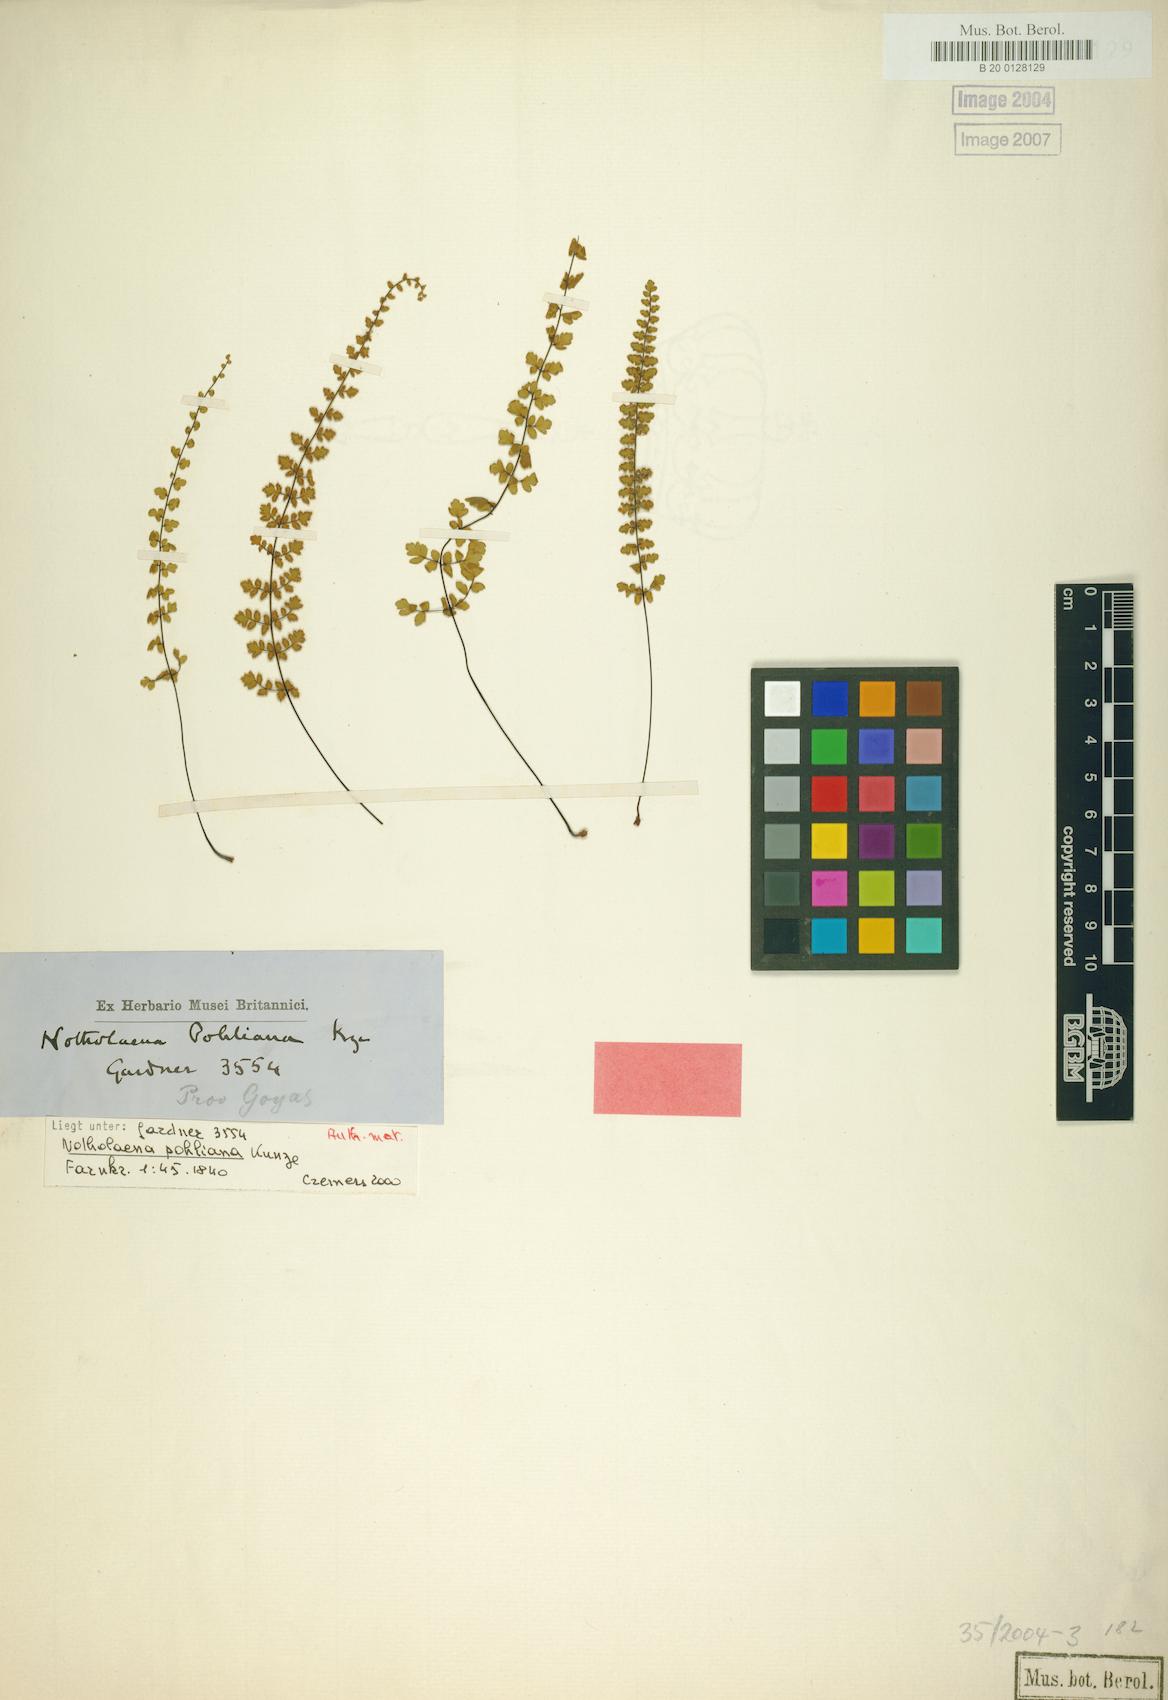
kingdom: Plantae
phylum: Tracheophyta
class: Polypodiopsida
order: Polypodiales
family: Pteridaceae
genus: Cheilanthes
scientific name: Cheilanthes pohliana
